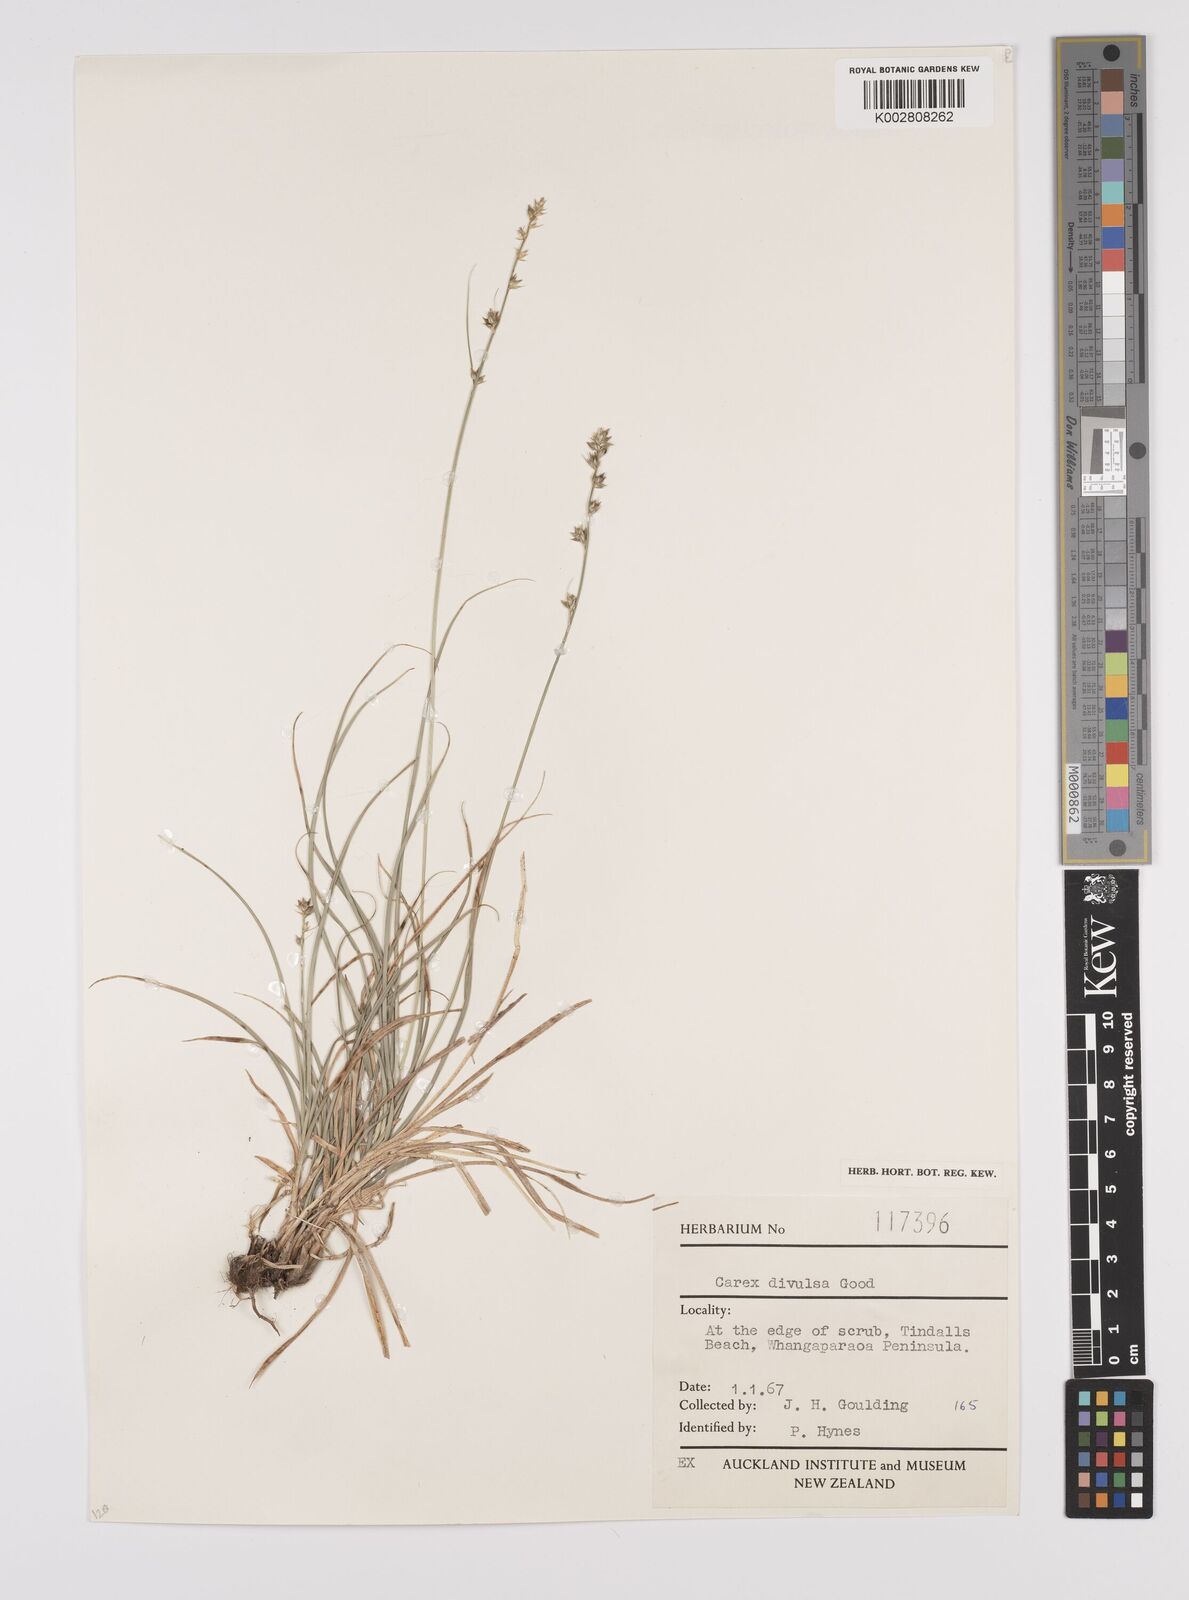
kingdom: Plantae
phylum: Tracheophyta
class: Liliopsida
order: Poales
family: Cyperaceae
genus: Carex
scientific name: Carex divulsa
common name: Grassland sedge
